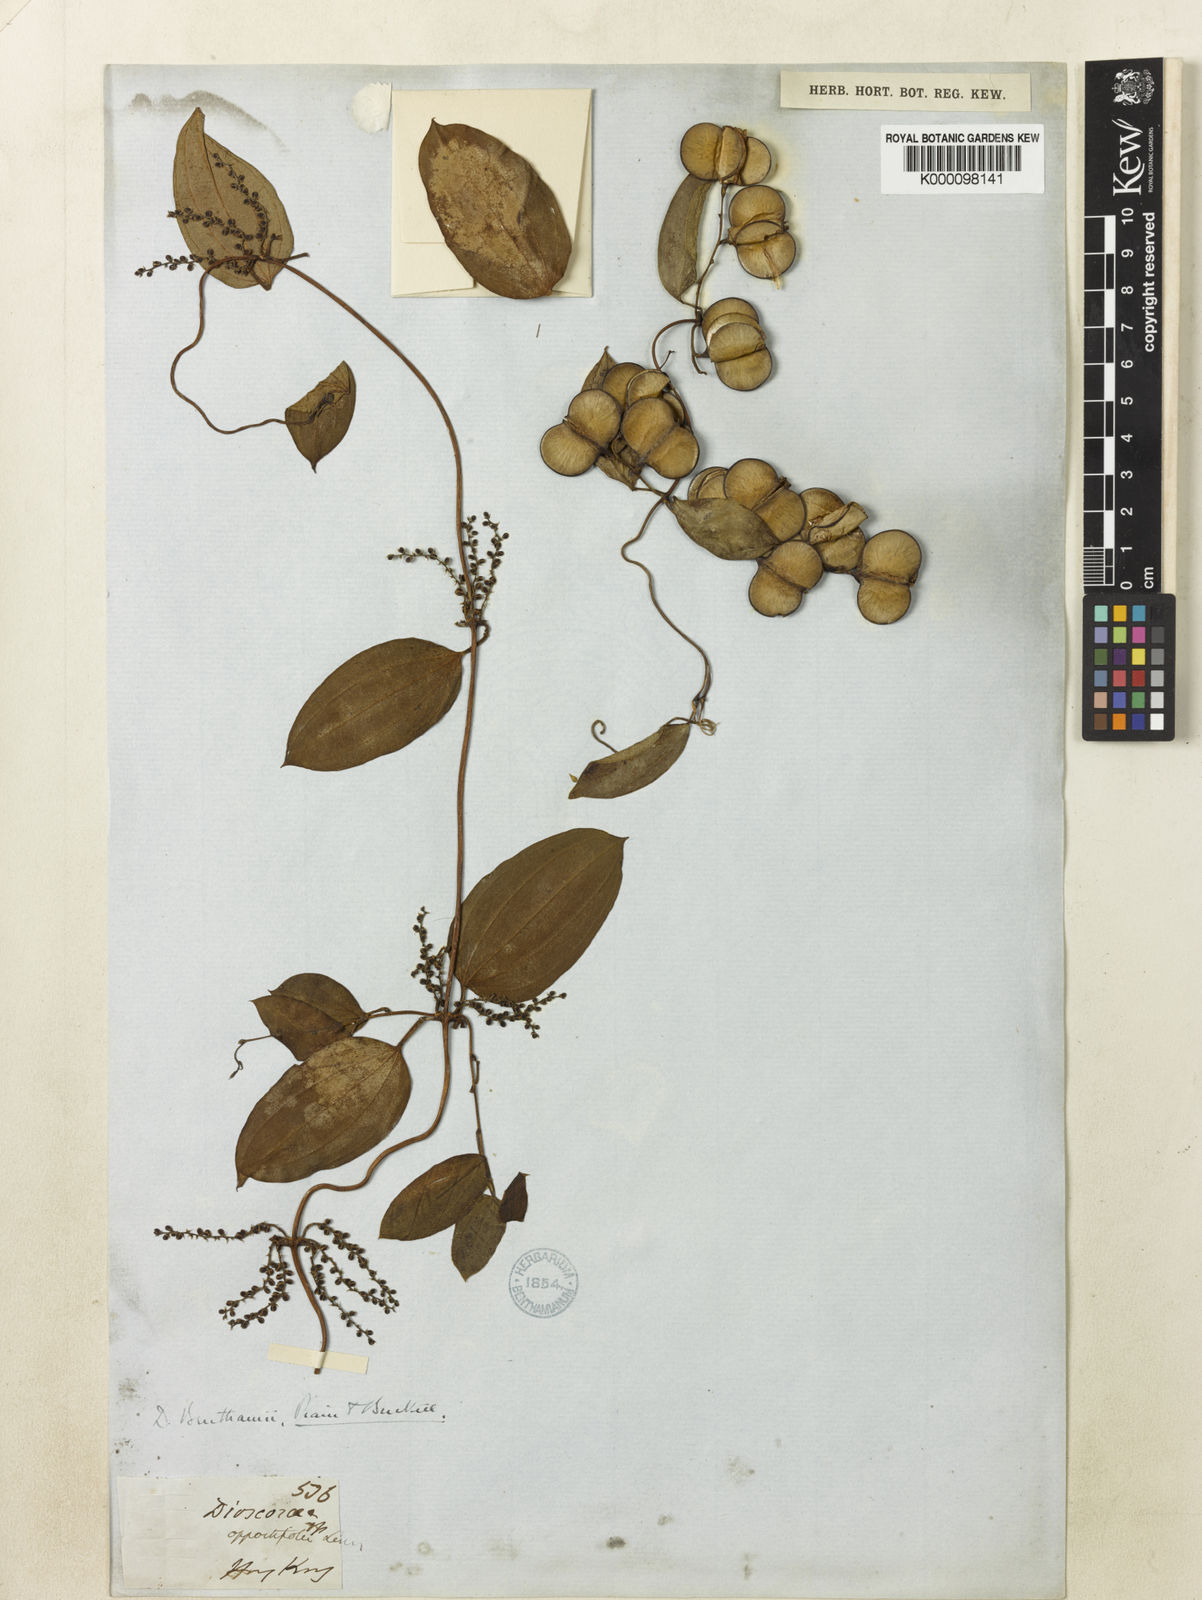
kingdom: Plantae
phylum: Tracheophyta
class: Liliopsida
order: Dioscoreales
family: Dioscoreaceae
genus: Dioscorea
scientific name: Dioscorea benthamii
